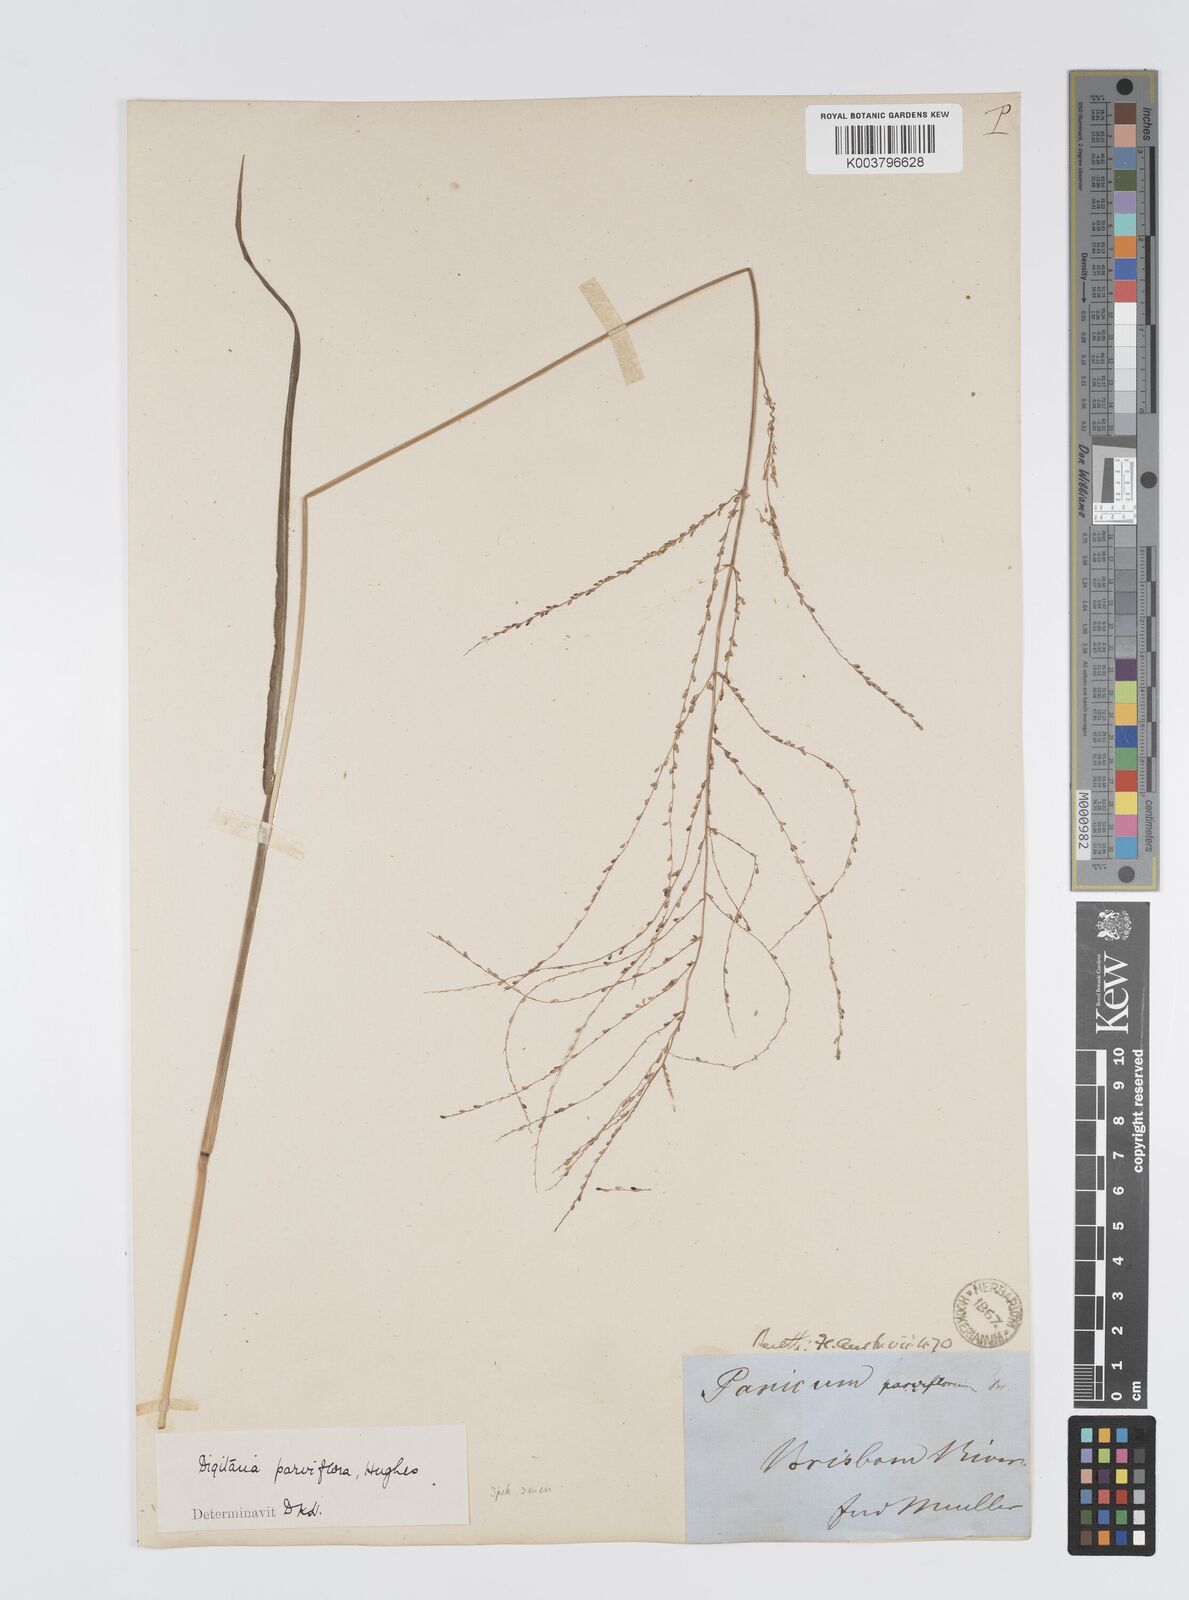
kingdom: Plantae
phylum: Tracheophyta
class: Liliopsida
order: Poales
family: Poaceae
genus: Digitaria
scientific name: Digitaria parviflora
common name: Small-flower finger grass
